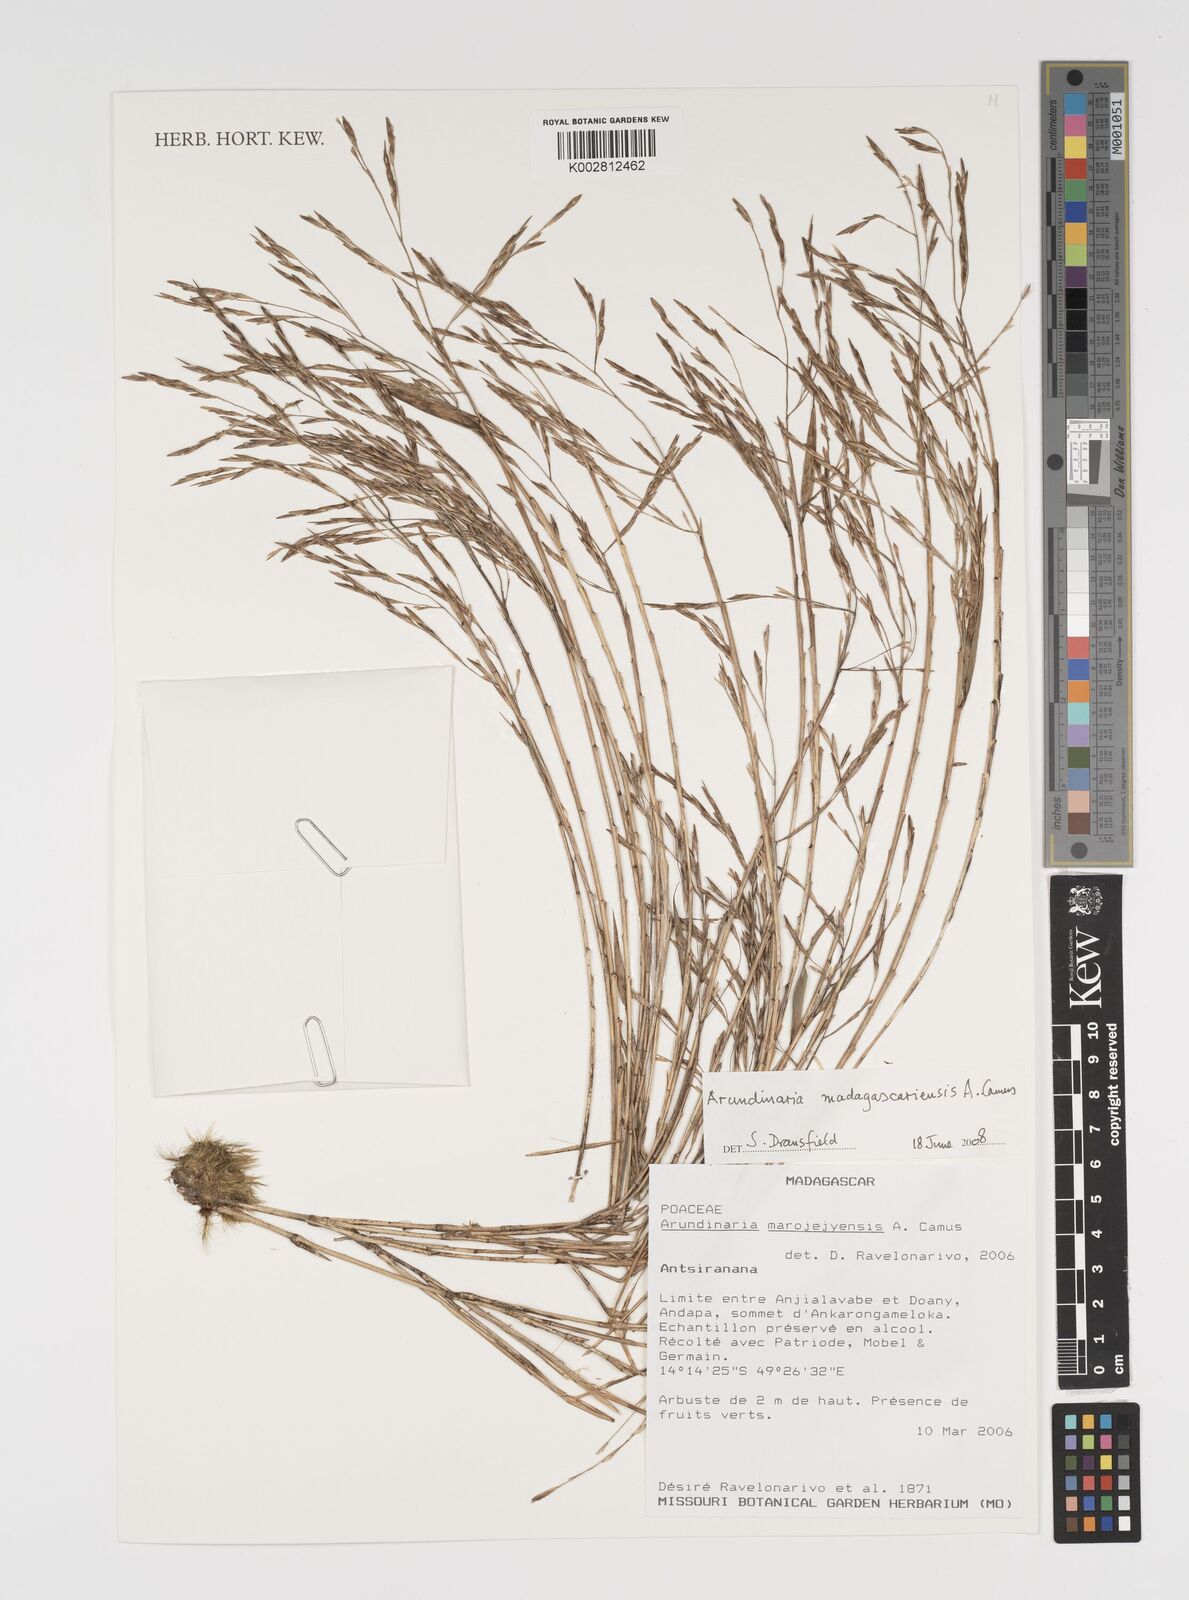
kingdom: Plantae
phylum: Tracheophyta
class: Liliopsida
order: Poales
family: Poaceae
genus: Oldeania
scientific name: Oldeania madagascariensis
